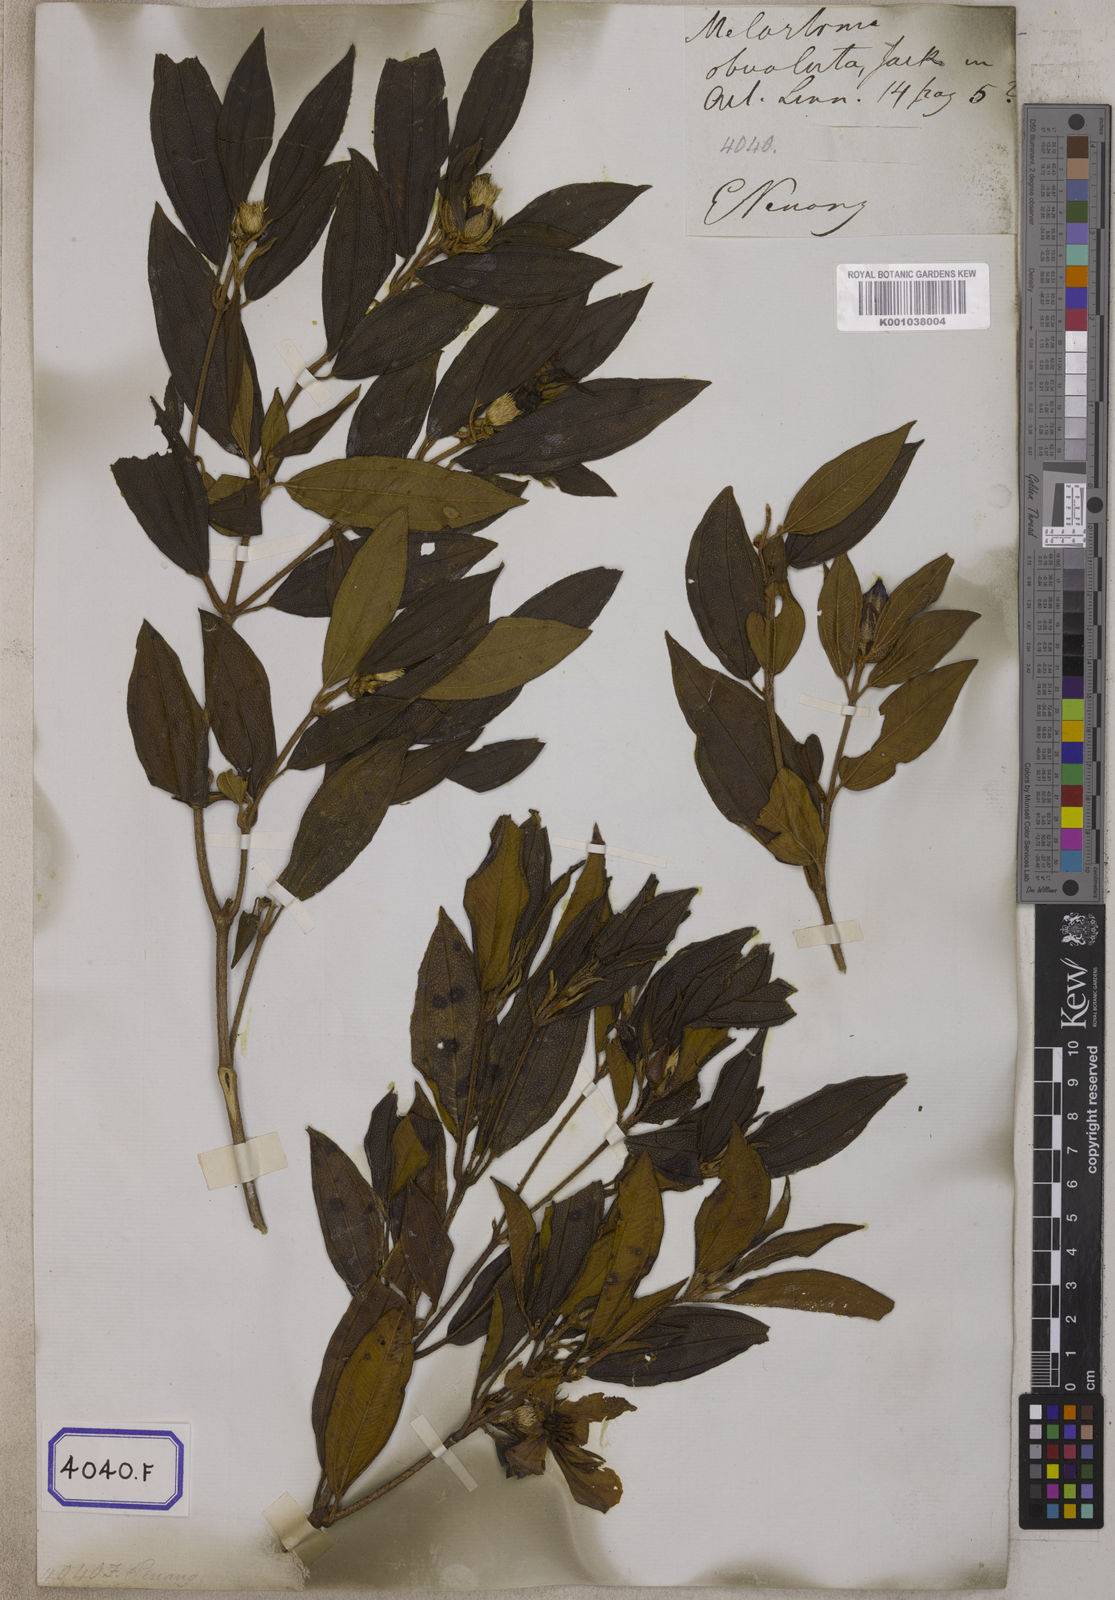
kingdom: Plantae
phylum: Tracheophyta
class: Magnoliopsida
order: Myrtales
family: Melastomataceae
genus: Melastoma
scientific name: Melastoma malabathricum
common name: Indian-rhododendron
